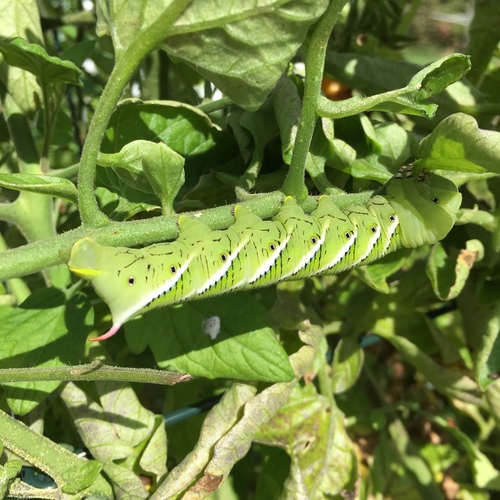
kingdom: Animalia
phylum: Arthropoda
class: Insecta
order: Lepidoptera
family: Sphingidae
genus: Manduca
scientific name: Manduca sexta
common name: Carolina sphinx
